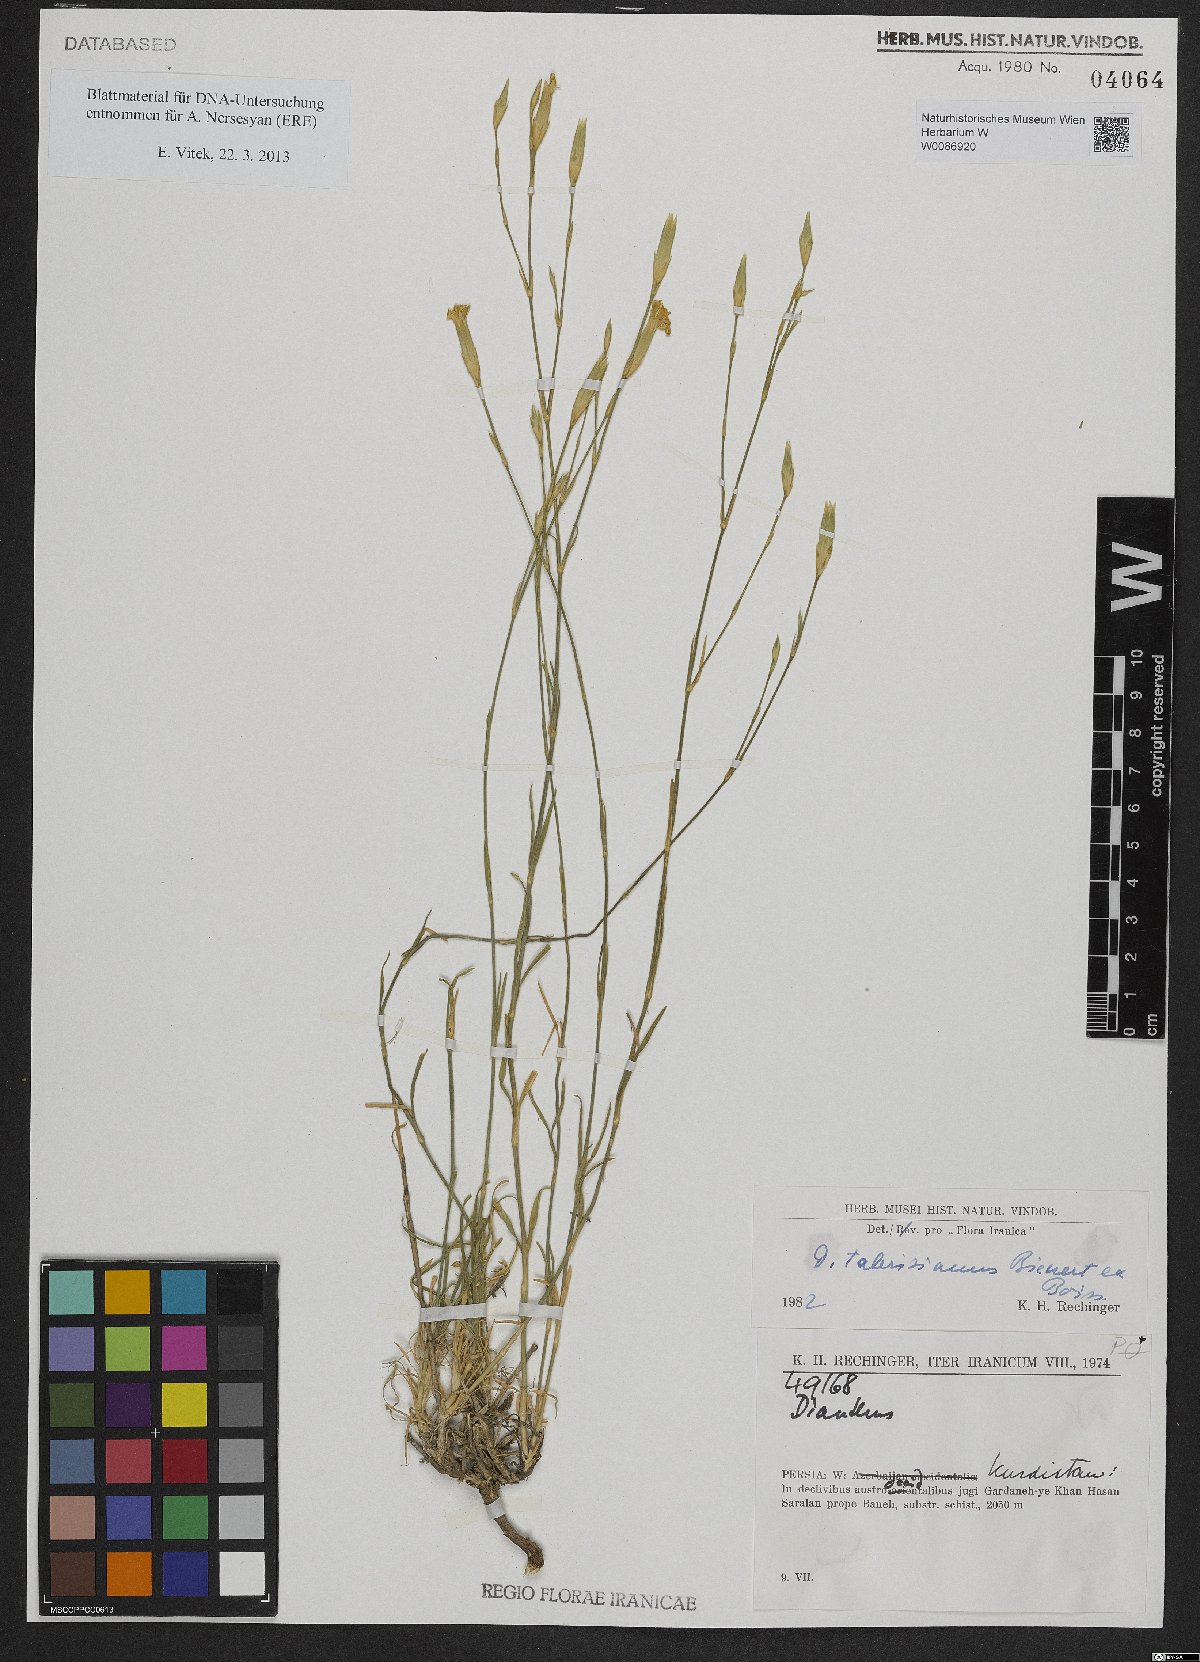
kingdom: Plantae
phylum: Tracheophyta
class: Magnoliopsida
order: Caryophyllales
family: Caryophyllaceae
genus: Dianthus
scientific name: Dianthus tabrisianus
